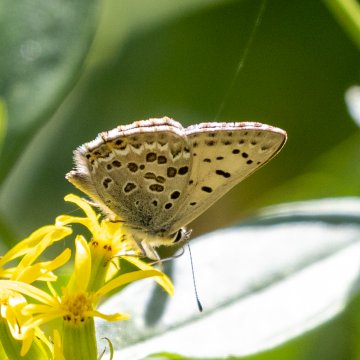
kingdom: Animalia
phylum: Arthropoda
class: Insecta
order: Lepidoptera
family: Lycaenidae
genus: Lycaena
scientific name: Lycaena editha
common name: Edith's Copper
